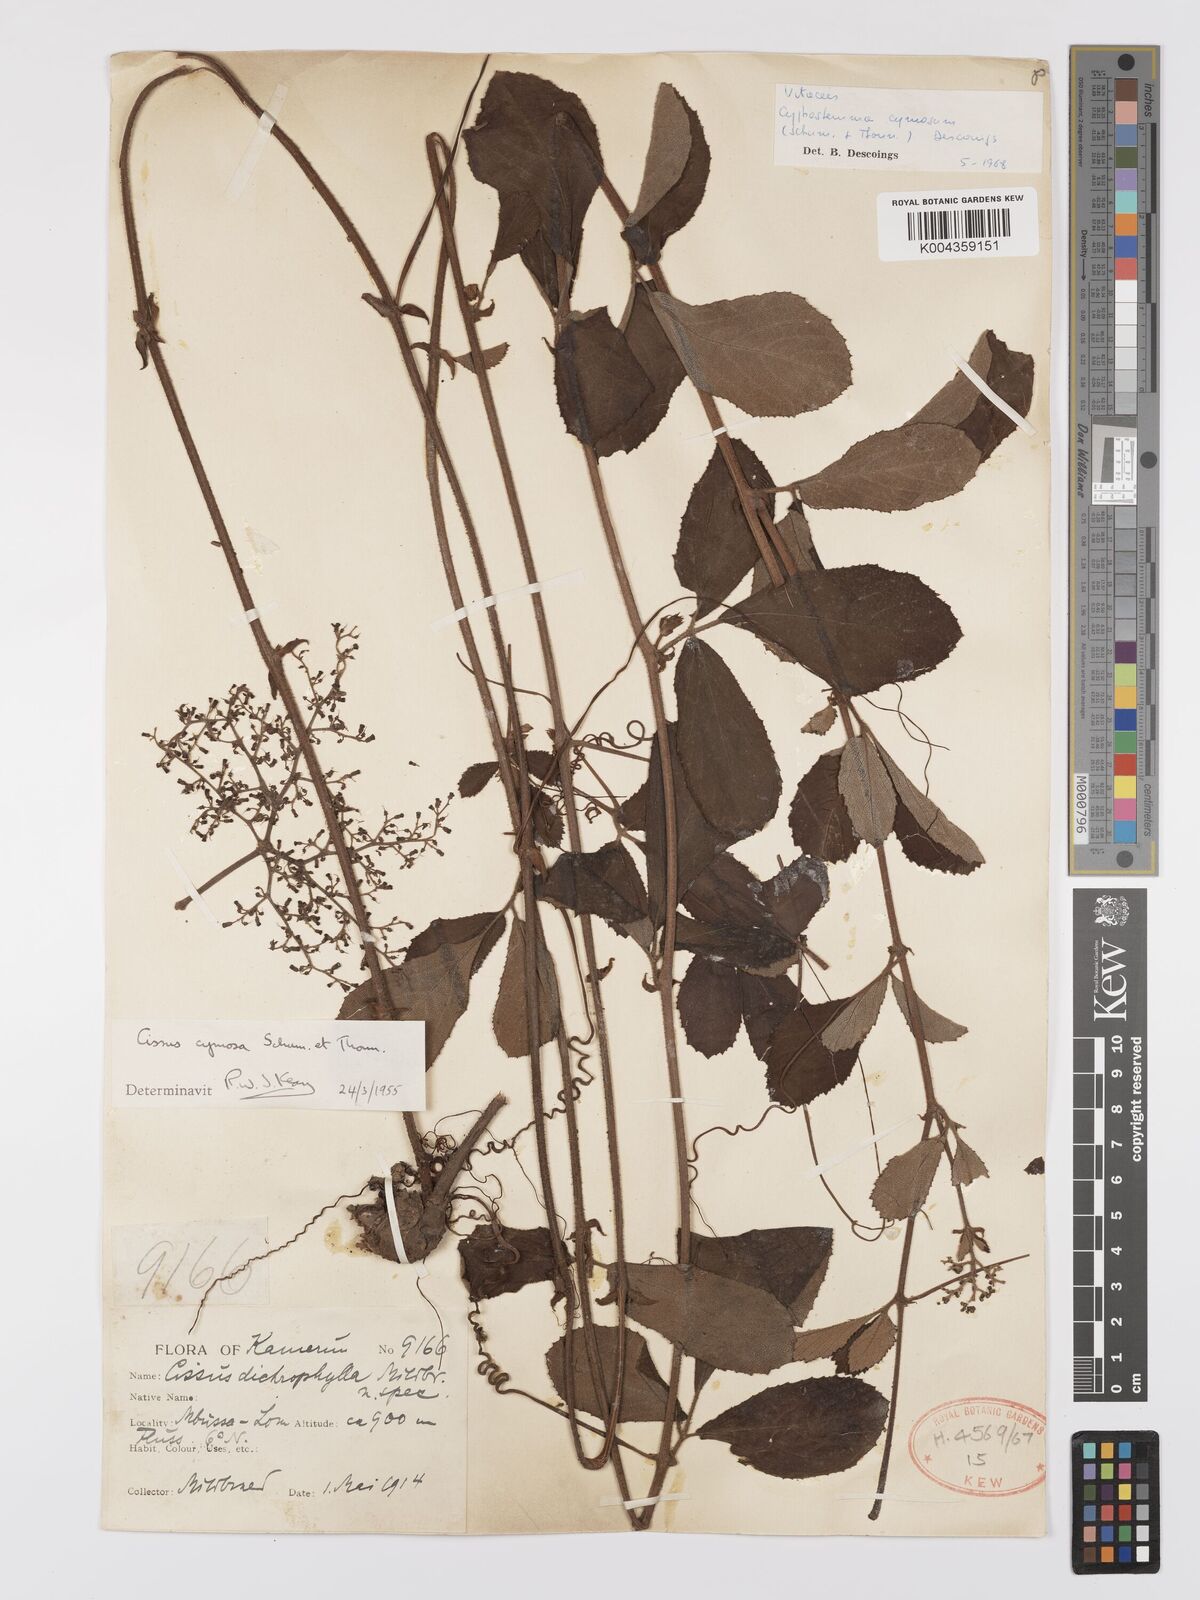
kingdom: Plantae
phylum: Tracheophyta
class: Magnoliopsida
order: Vitales
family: Vitaceae
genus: Cyphostemma
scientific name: Cyphostemma cymosum
